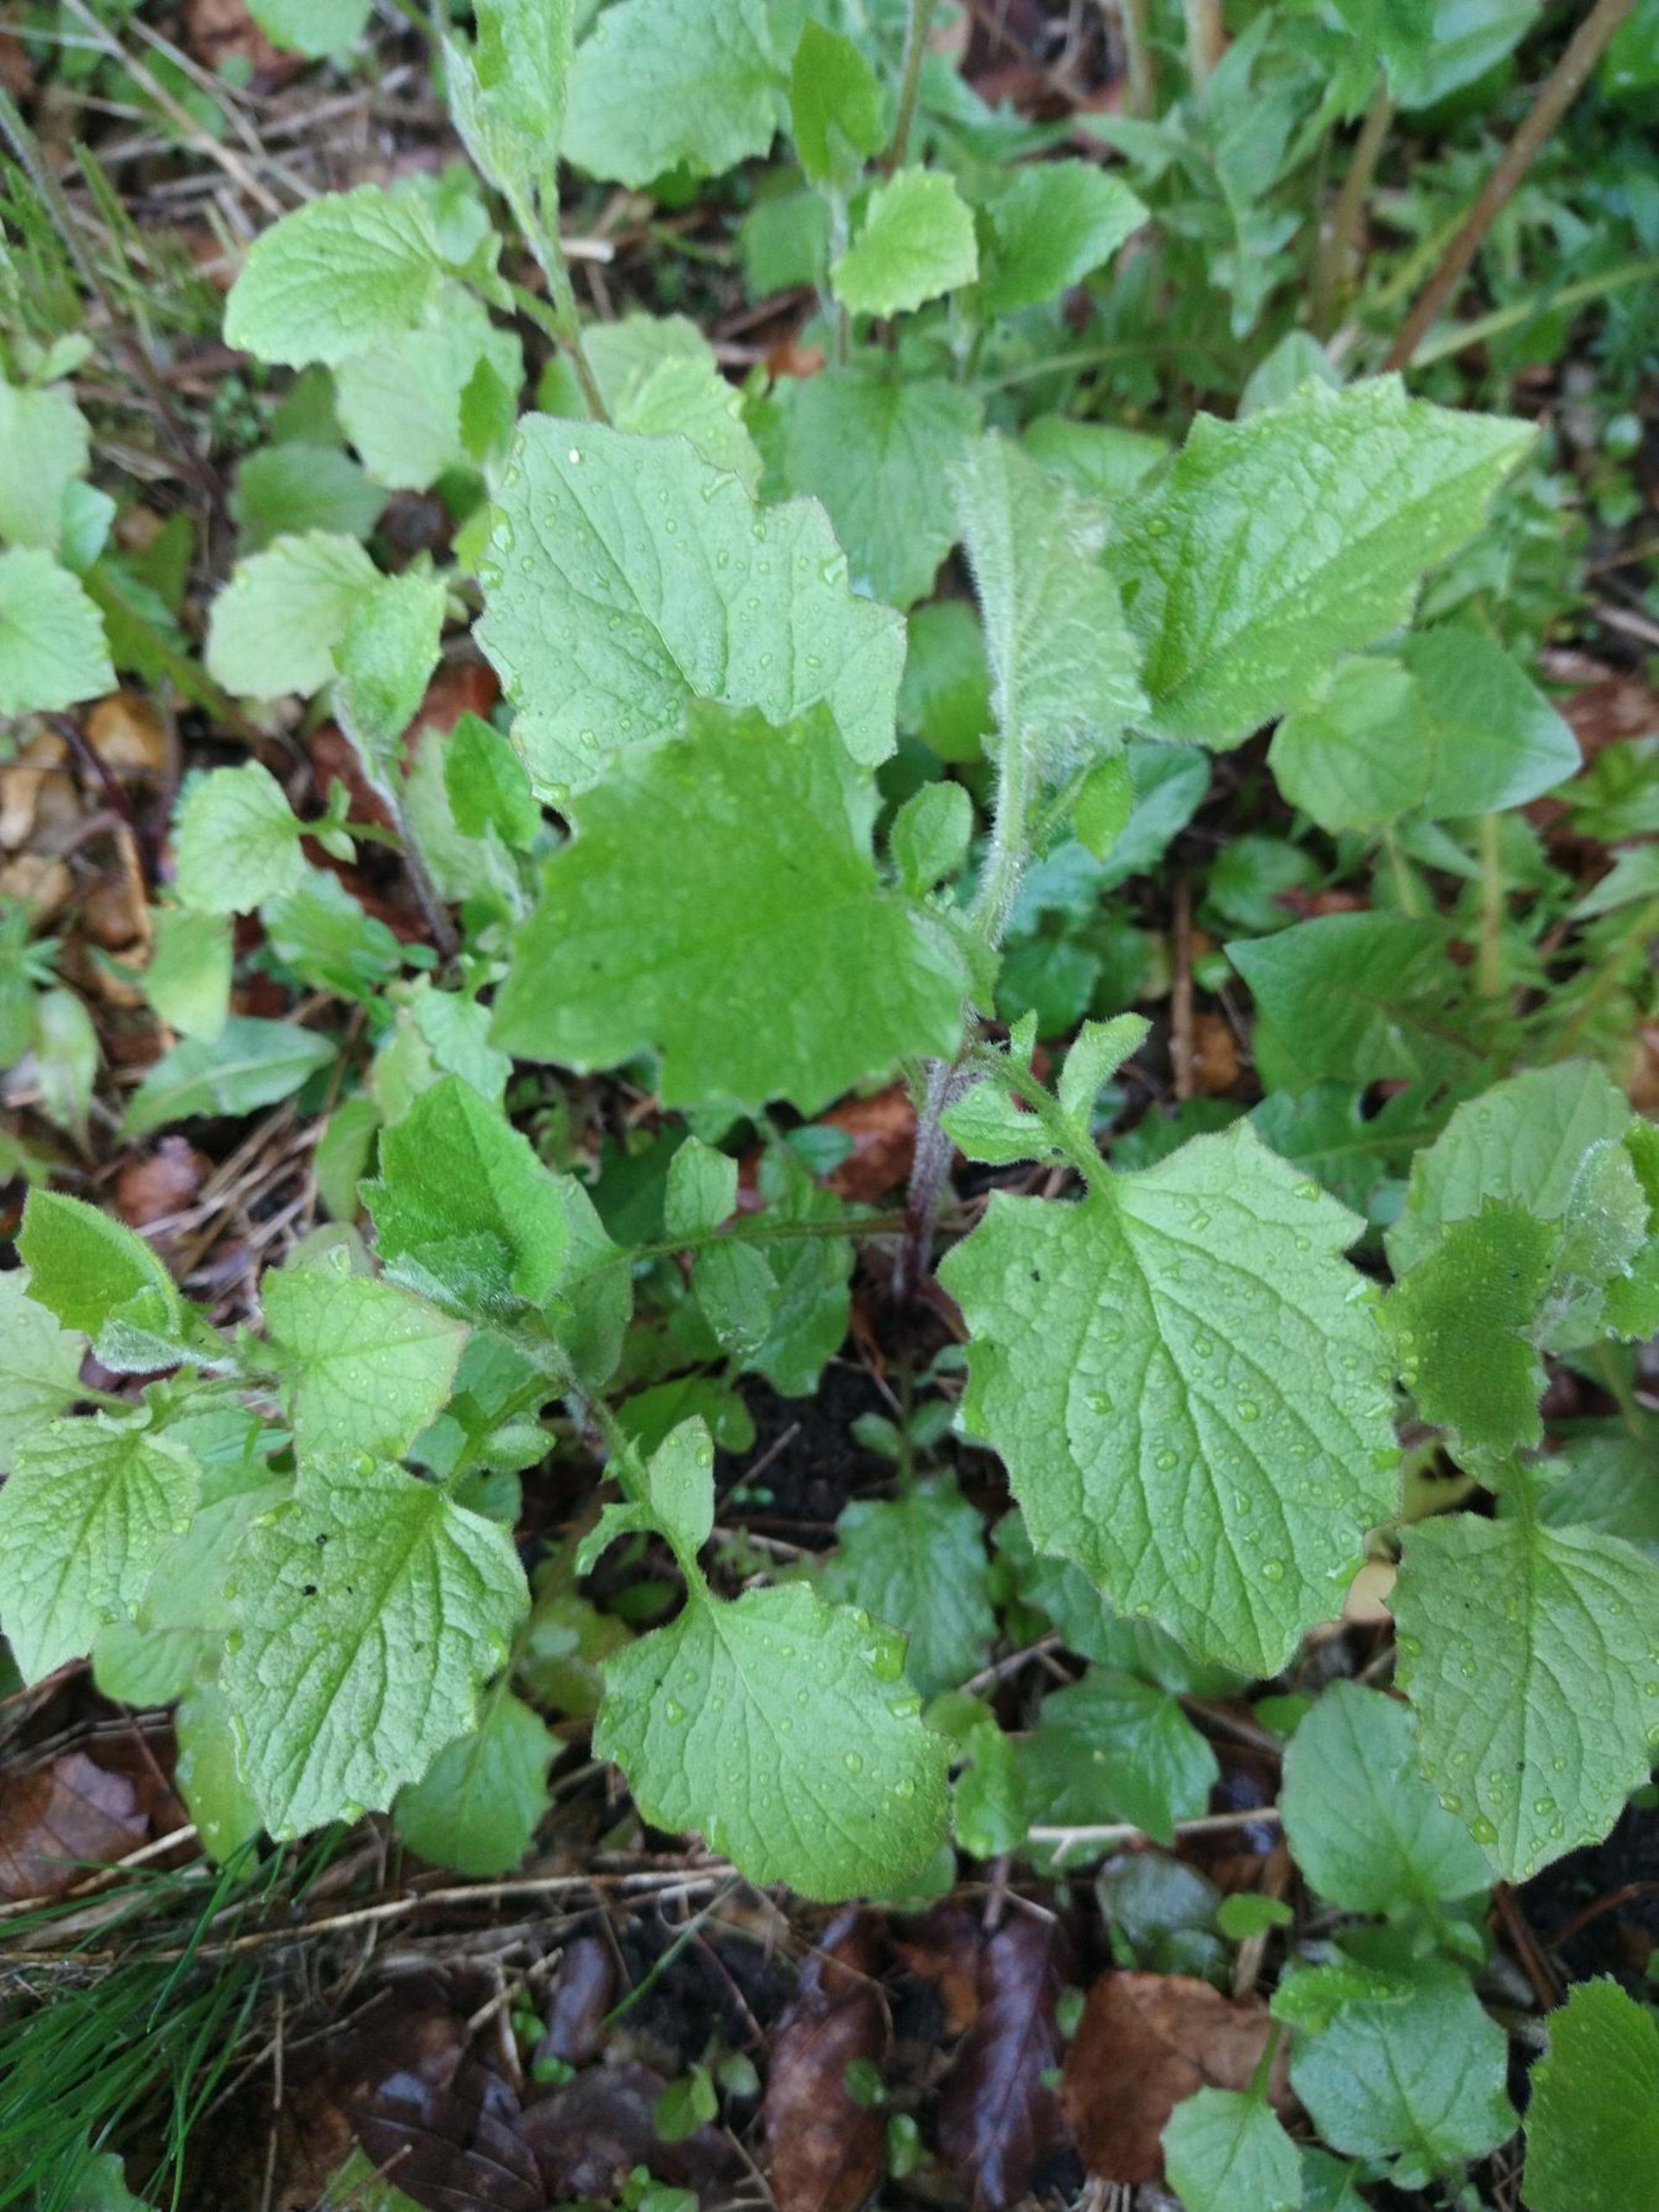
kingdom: Plantae
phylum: Tracheophyta
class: Magnoliopsida
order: Asterales
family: Asteraceae
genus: Lapsana
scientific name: Lapsana communis
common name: Haremad
